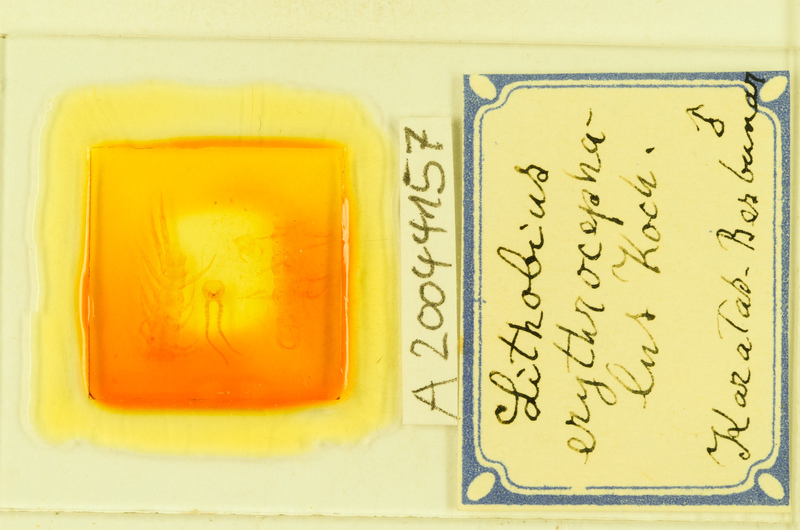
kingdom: Animalia
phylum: Arthropoda
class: Chilopoda
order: Lithobiomorpha
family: Lithobiidae
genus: Lithobius
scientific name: Lithobius erythrocephalus
